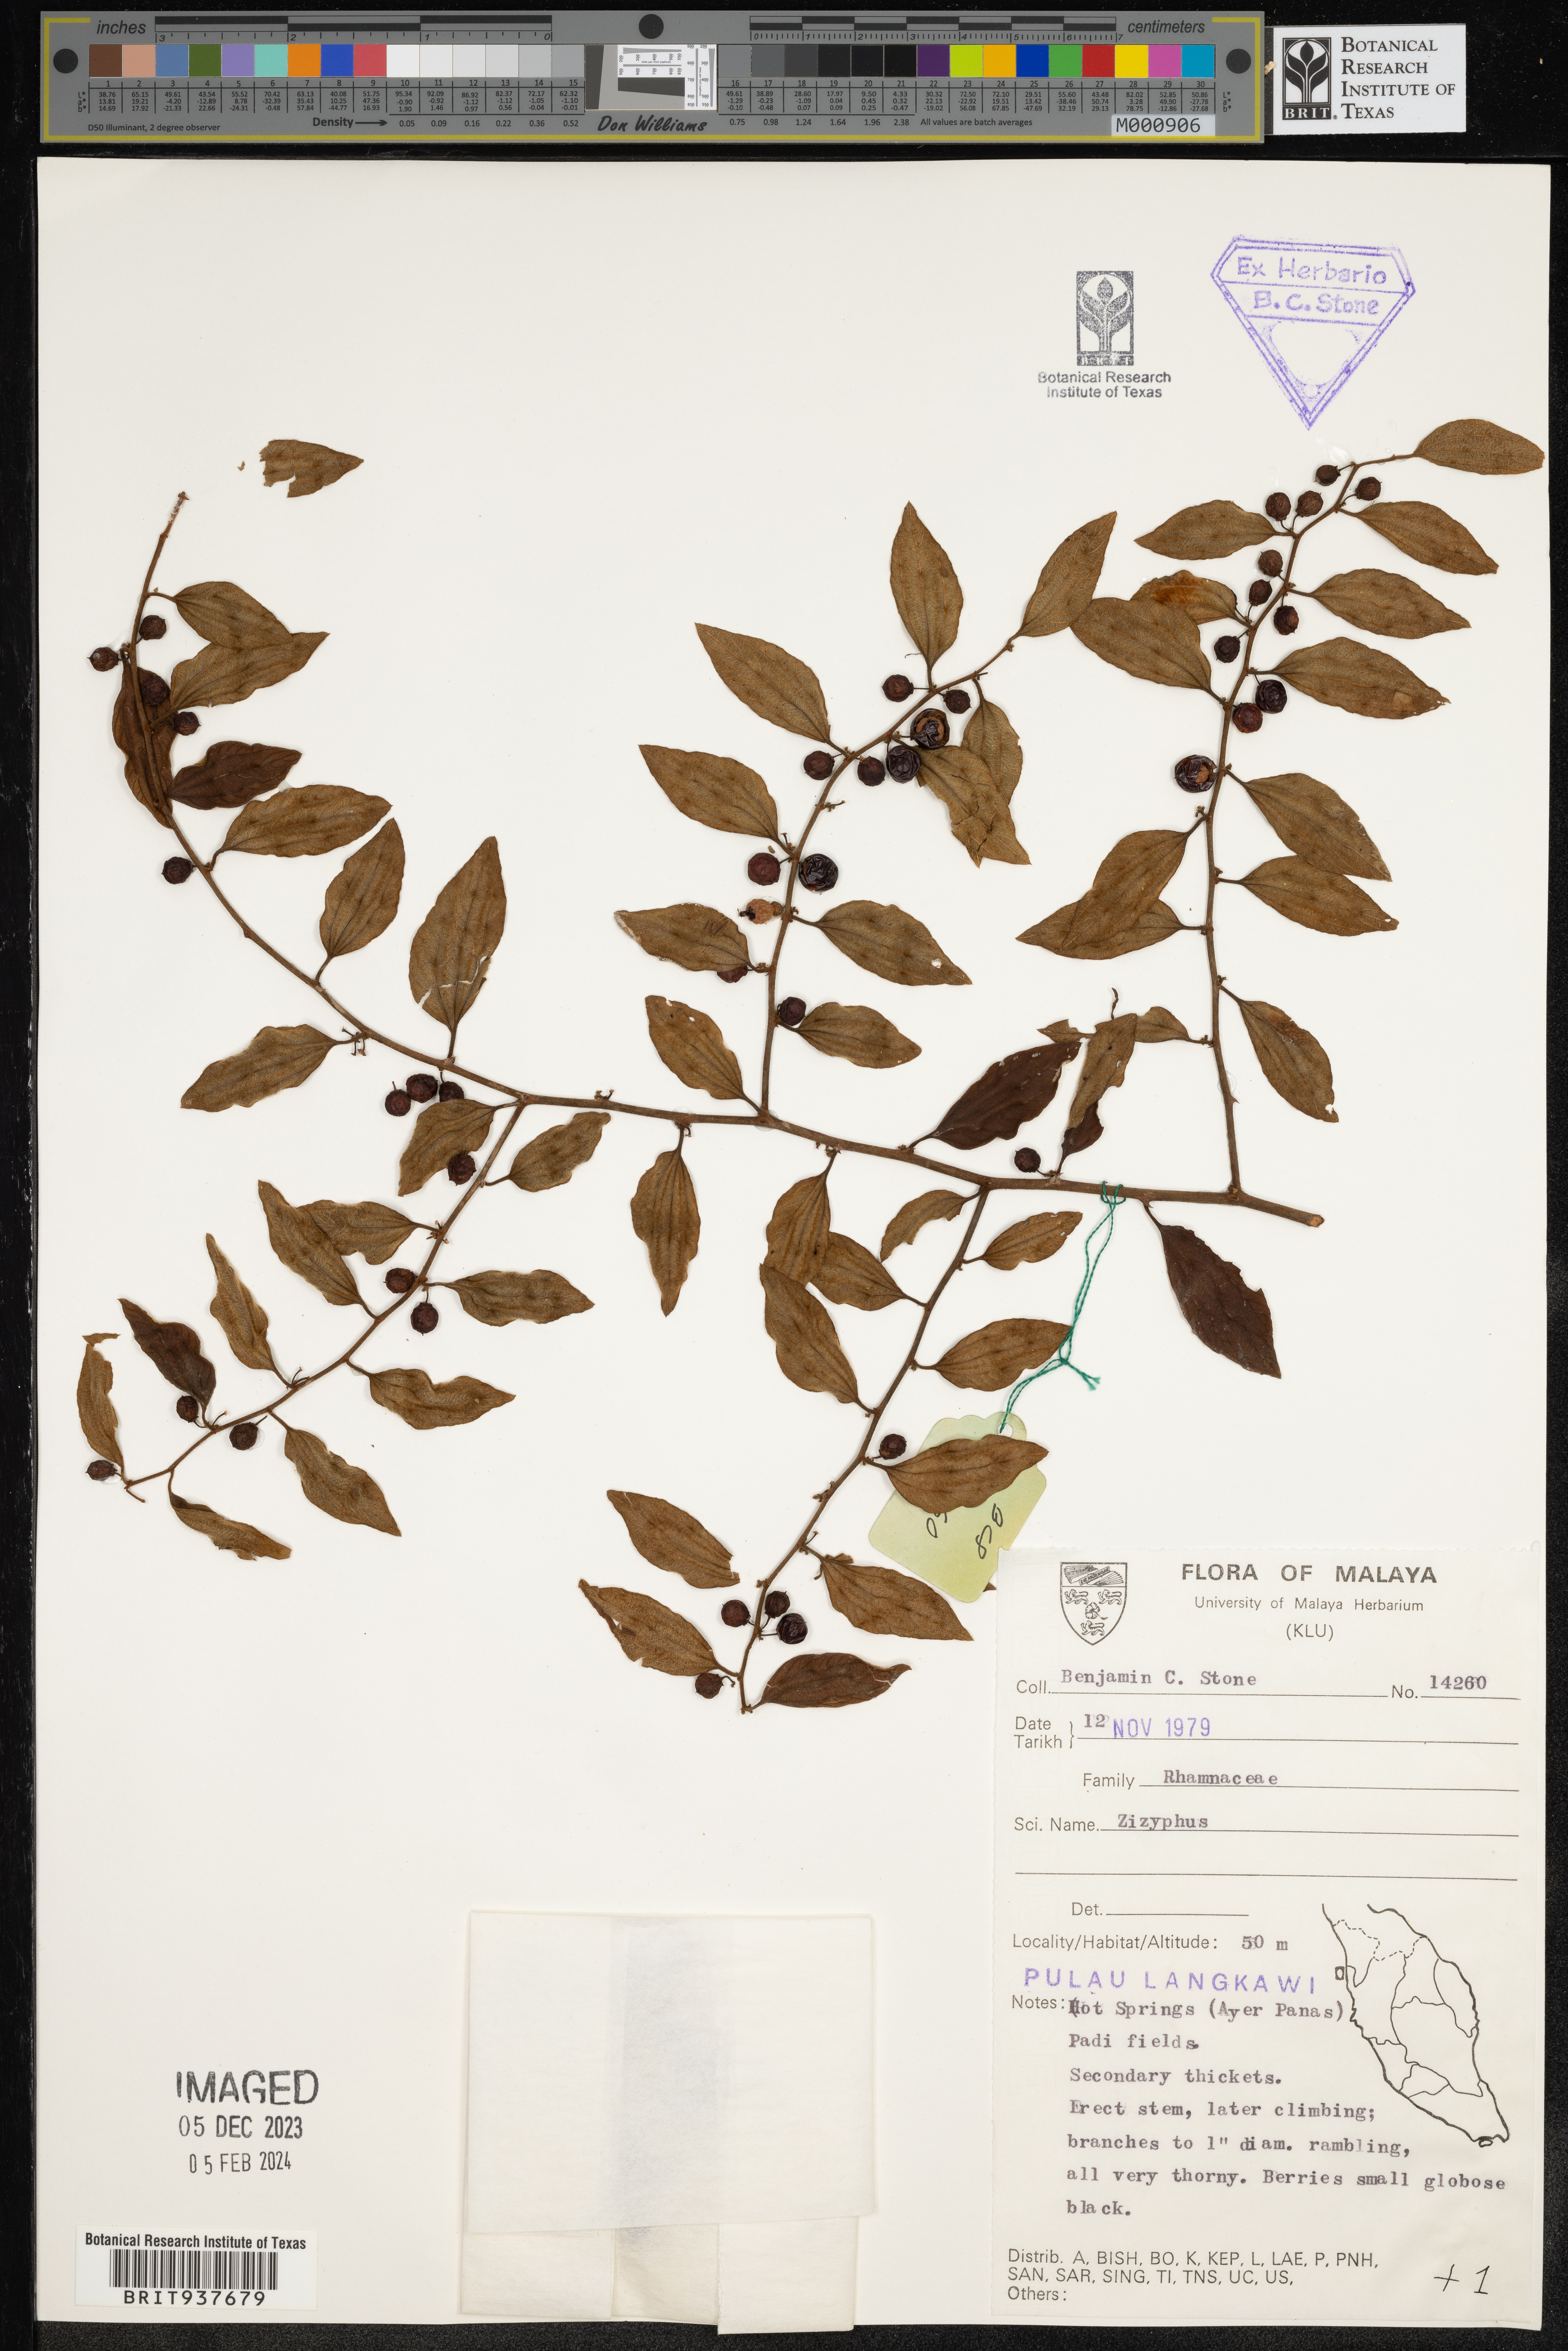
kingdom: Plantae
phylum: Tracheophyta
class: Magnoliopsida
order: Rosales
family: Rhamnaceae
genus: Ziziphus
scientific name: Ziziphus
